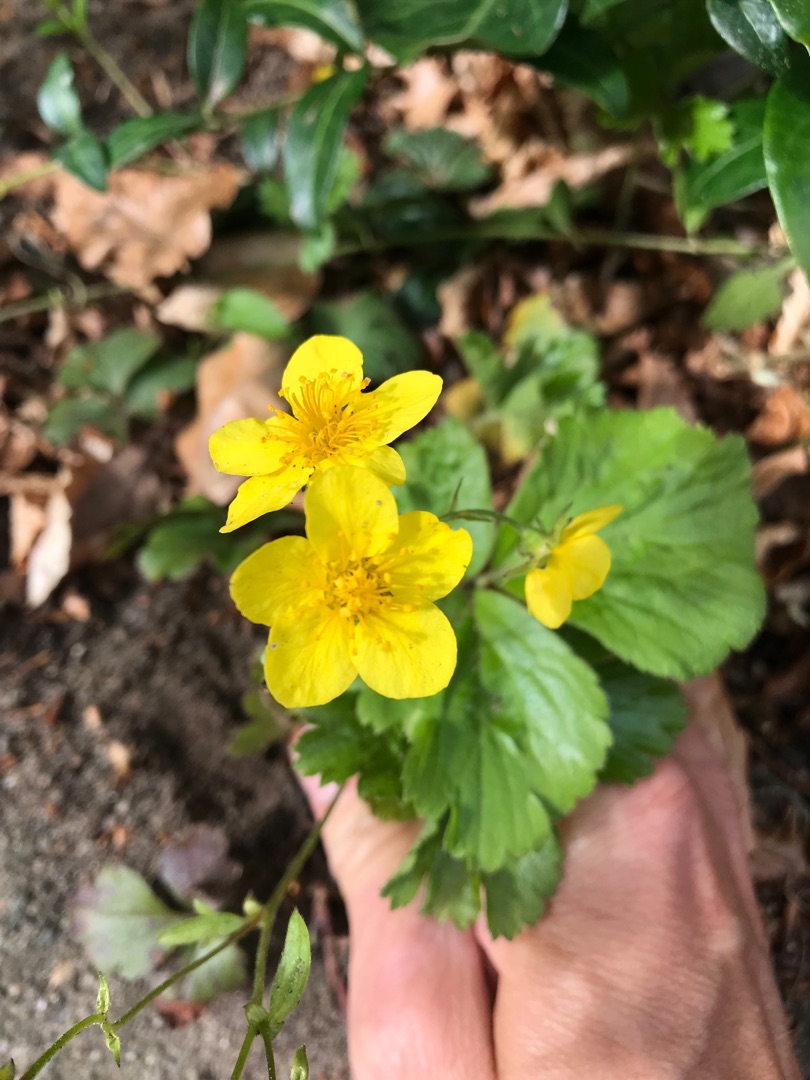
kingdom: Plantae
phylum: Tracheophyta
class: Magnoliopsida
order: Rosales
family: Rosaceae
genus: Geum
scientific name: Geum ternatum
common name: Krybende guldjordbær
